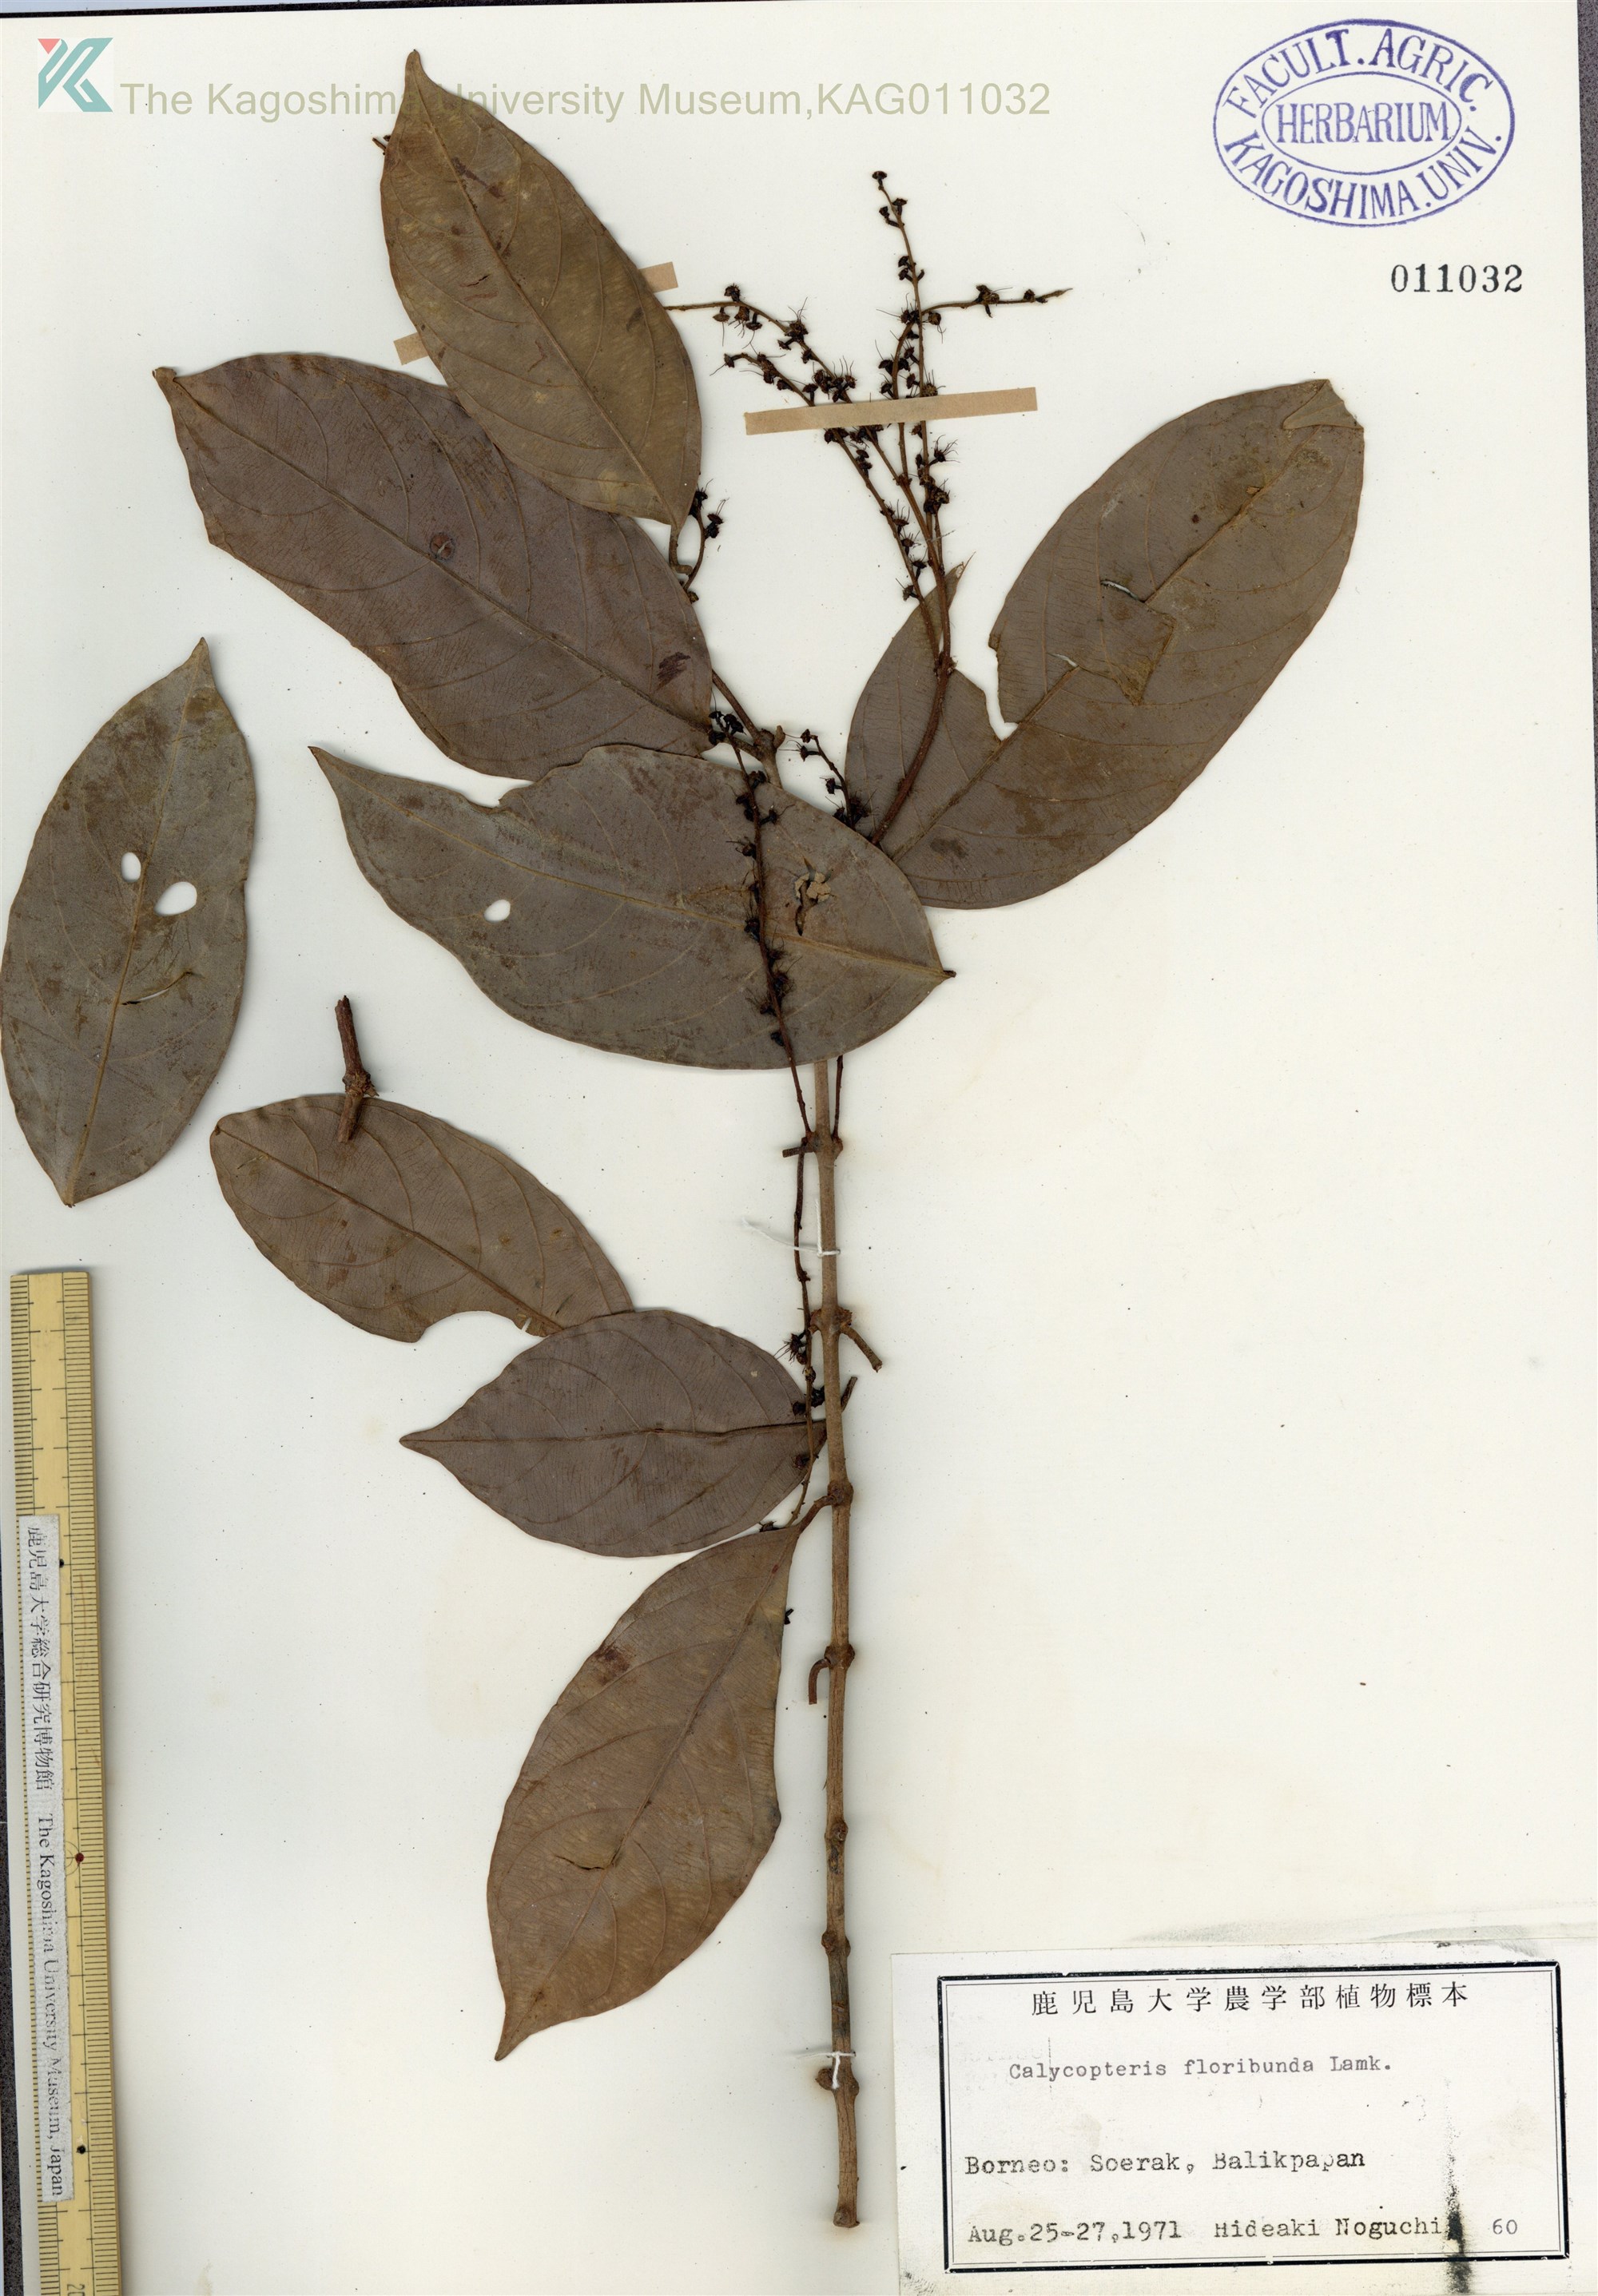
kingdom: Plantae
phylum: Tracheophyta
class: Magnoliopsida
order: Myrtales
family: Crypteroniaceae
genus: Crypteronia
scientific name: Crypteronia
